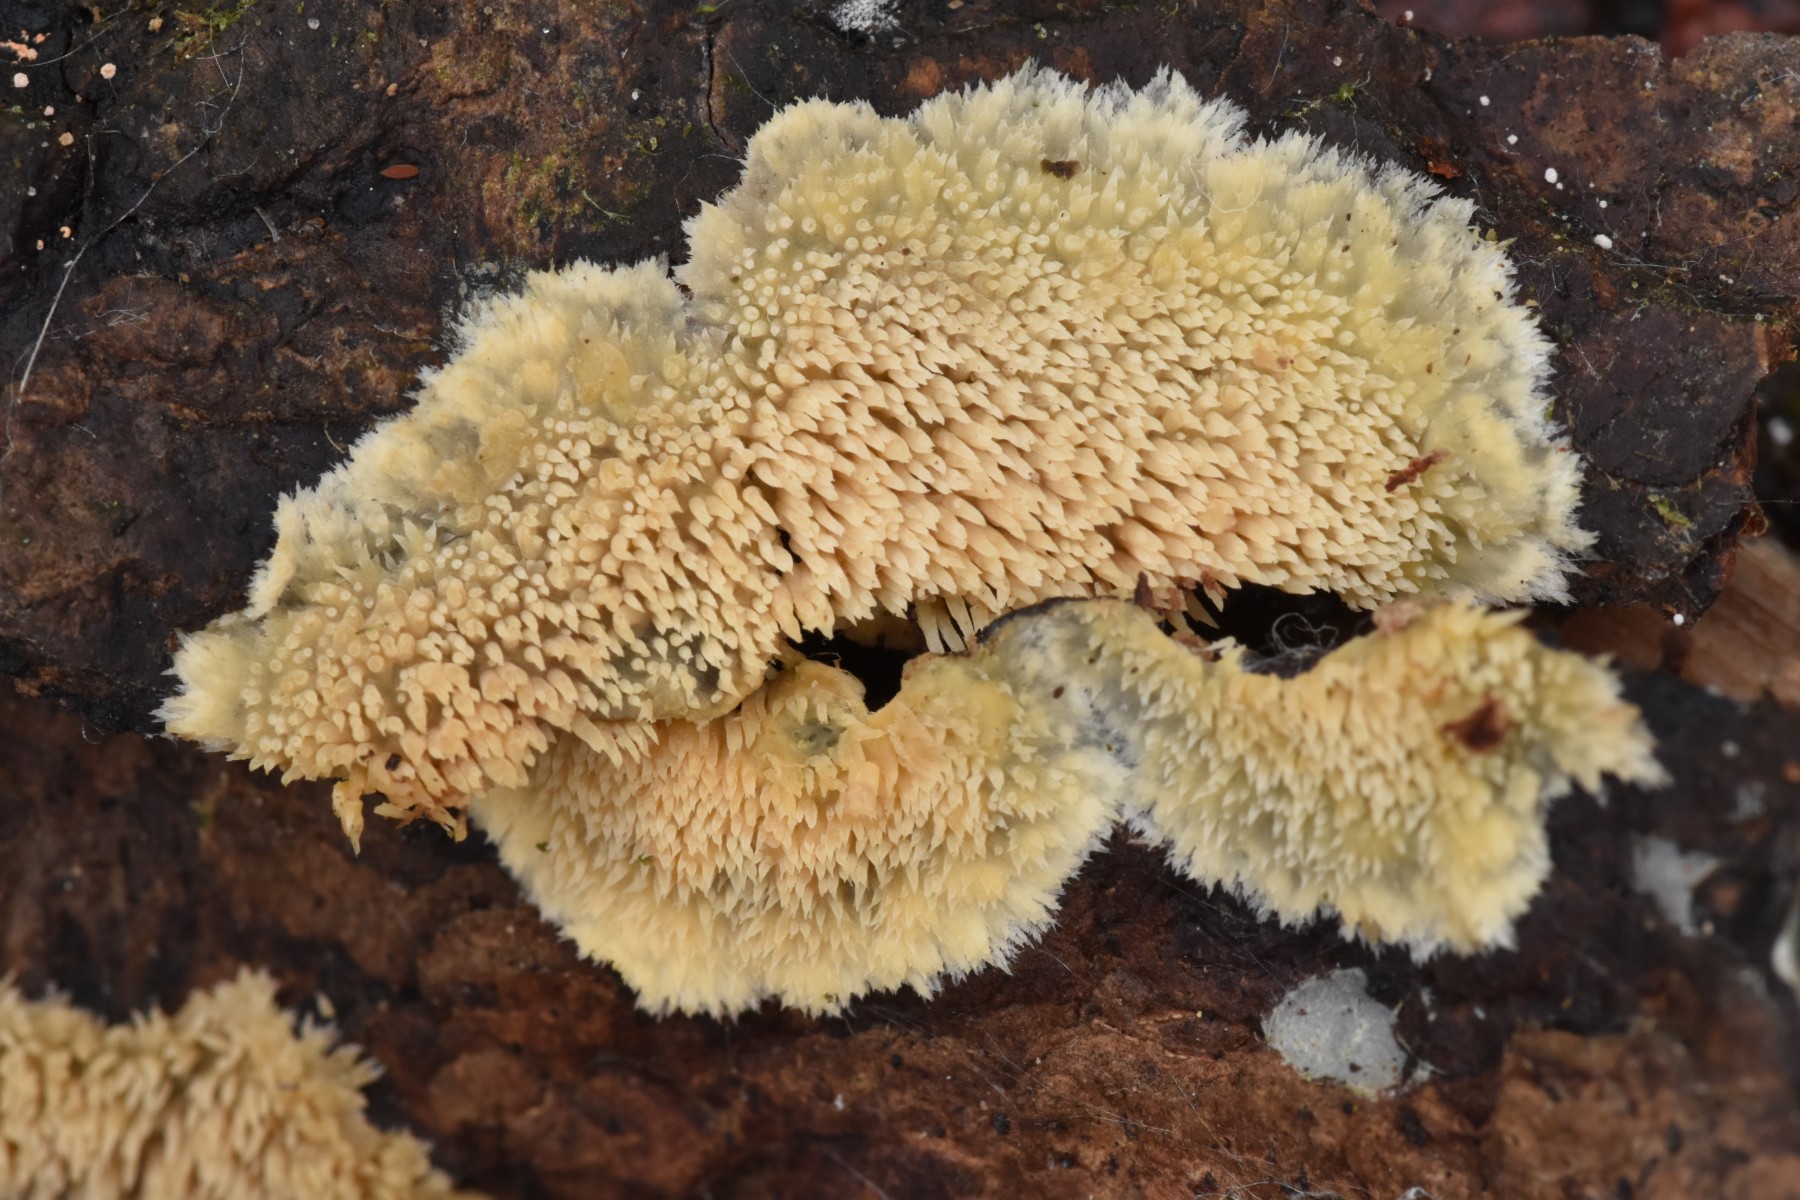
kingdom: Fungi
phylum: Basidiomycota
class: Agaricomycetes
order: Polyporales
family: Meruliaceae
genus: Mycoacia
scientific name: Mycoacia uda
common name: citrongul vokspig
